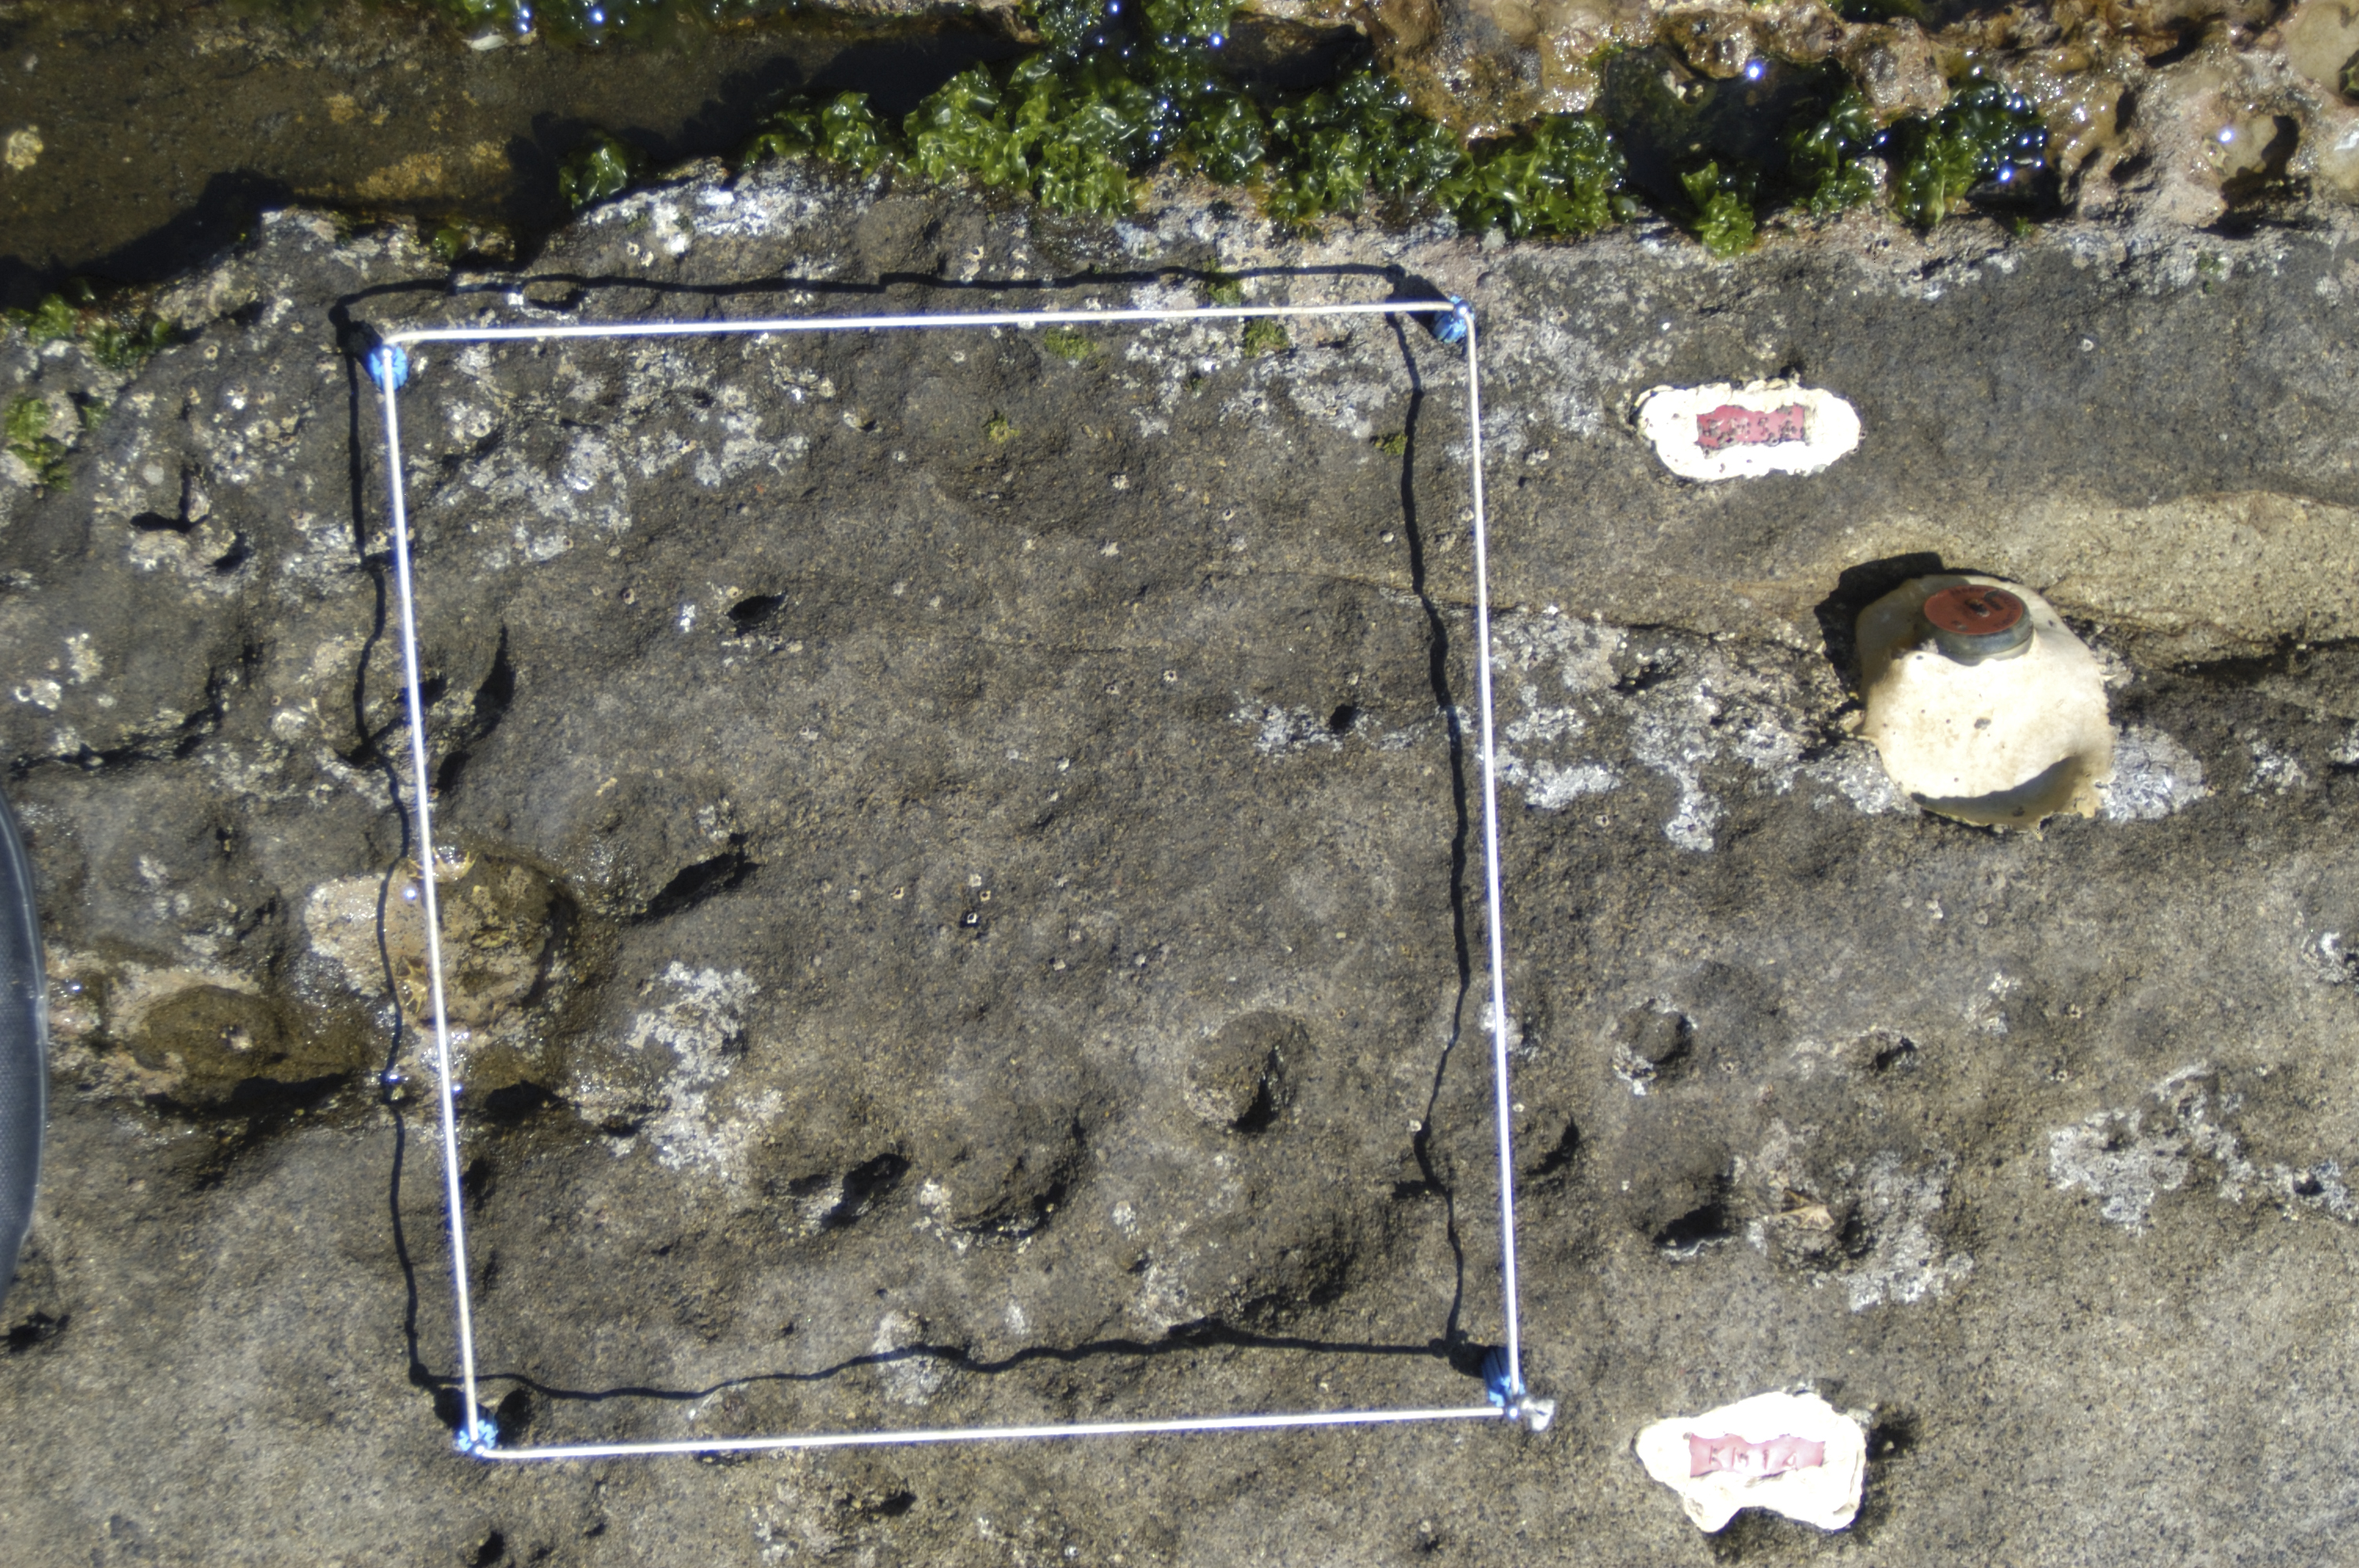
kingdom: Animalia
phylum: Arthropoda
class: Maxillopoda
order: Sessilia
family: Chthamalidae
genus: Chthamalus
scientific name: Chthamalus challengeri
